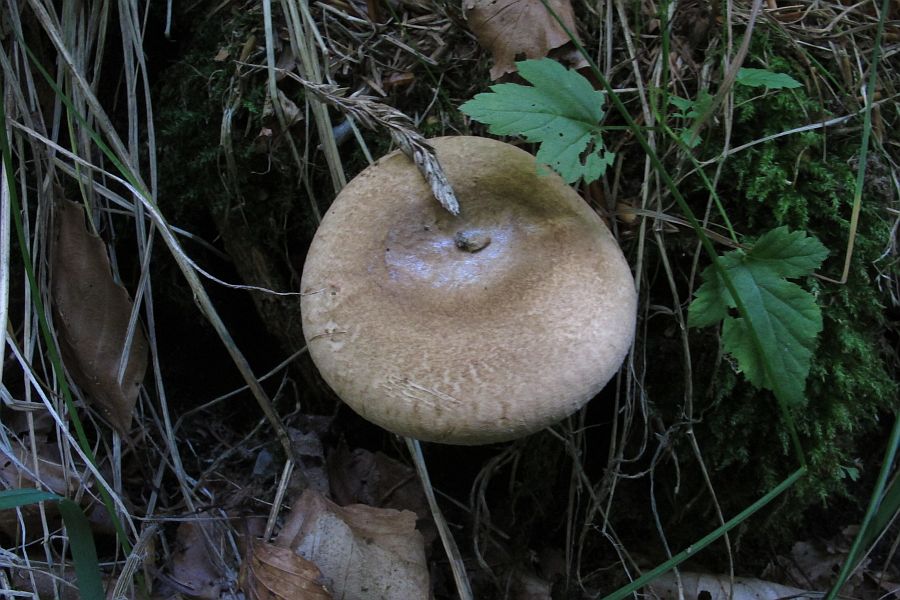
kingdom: Fungi
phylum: Basidiomycota
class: Agaricomycetes
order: Boletales
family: Paxillaceae
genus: Paxillus
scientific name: Paxillus involutus
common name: almindelig netbladhat
